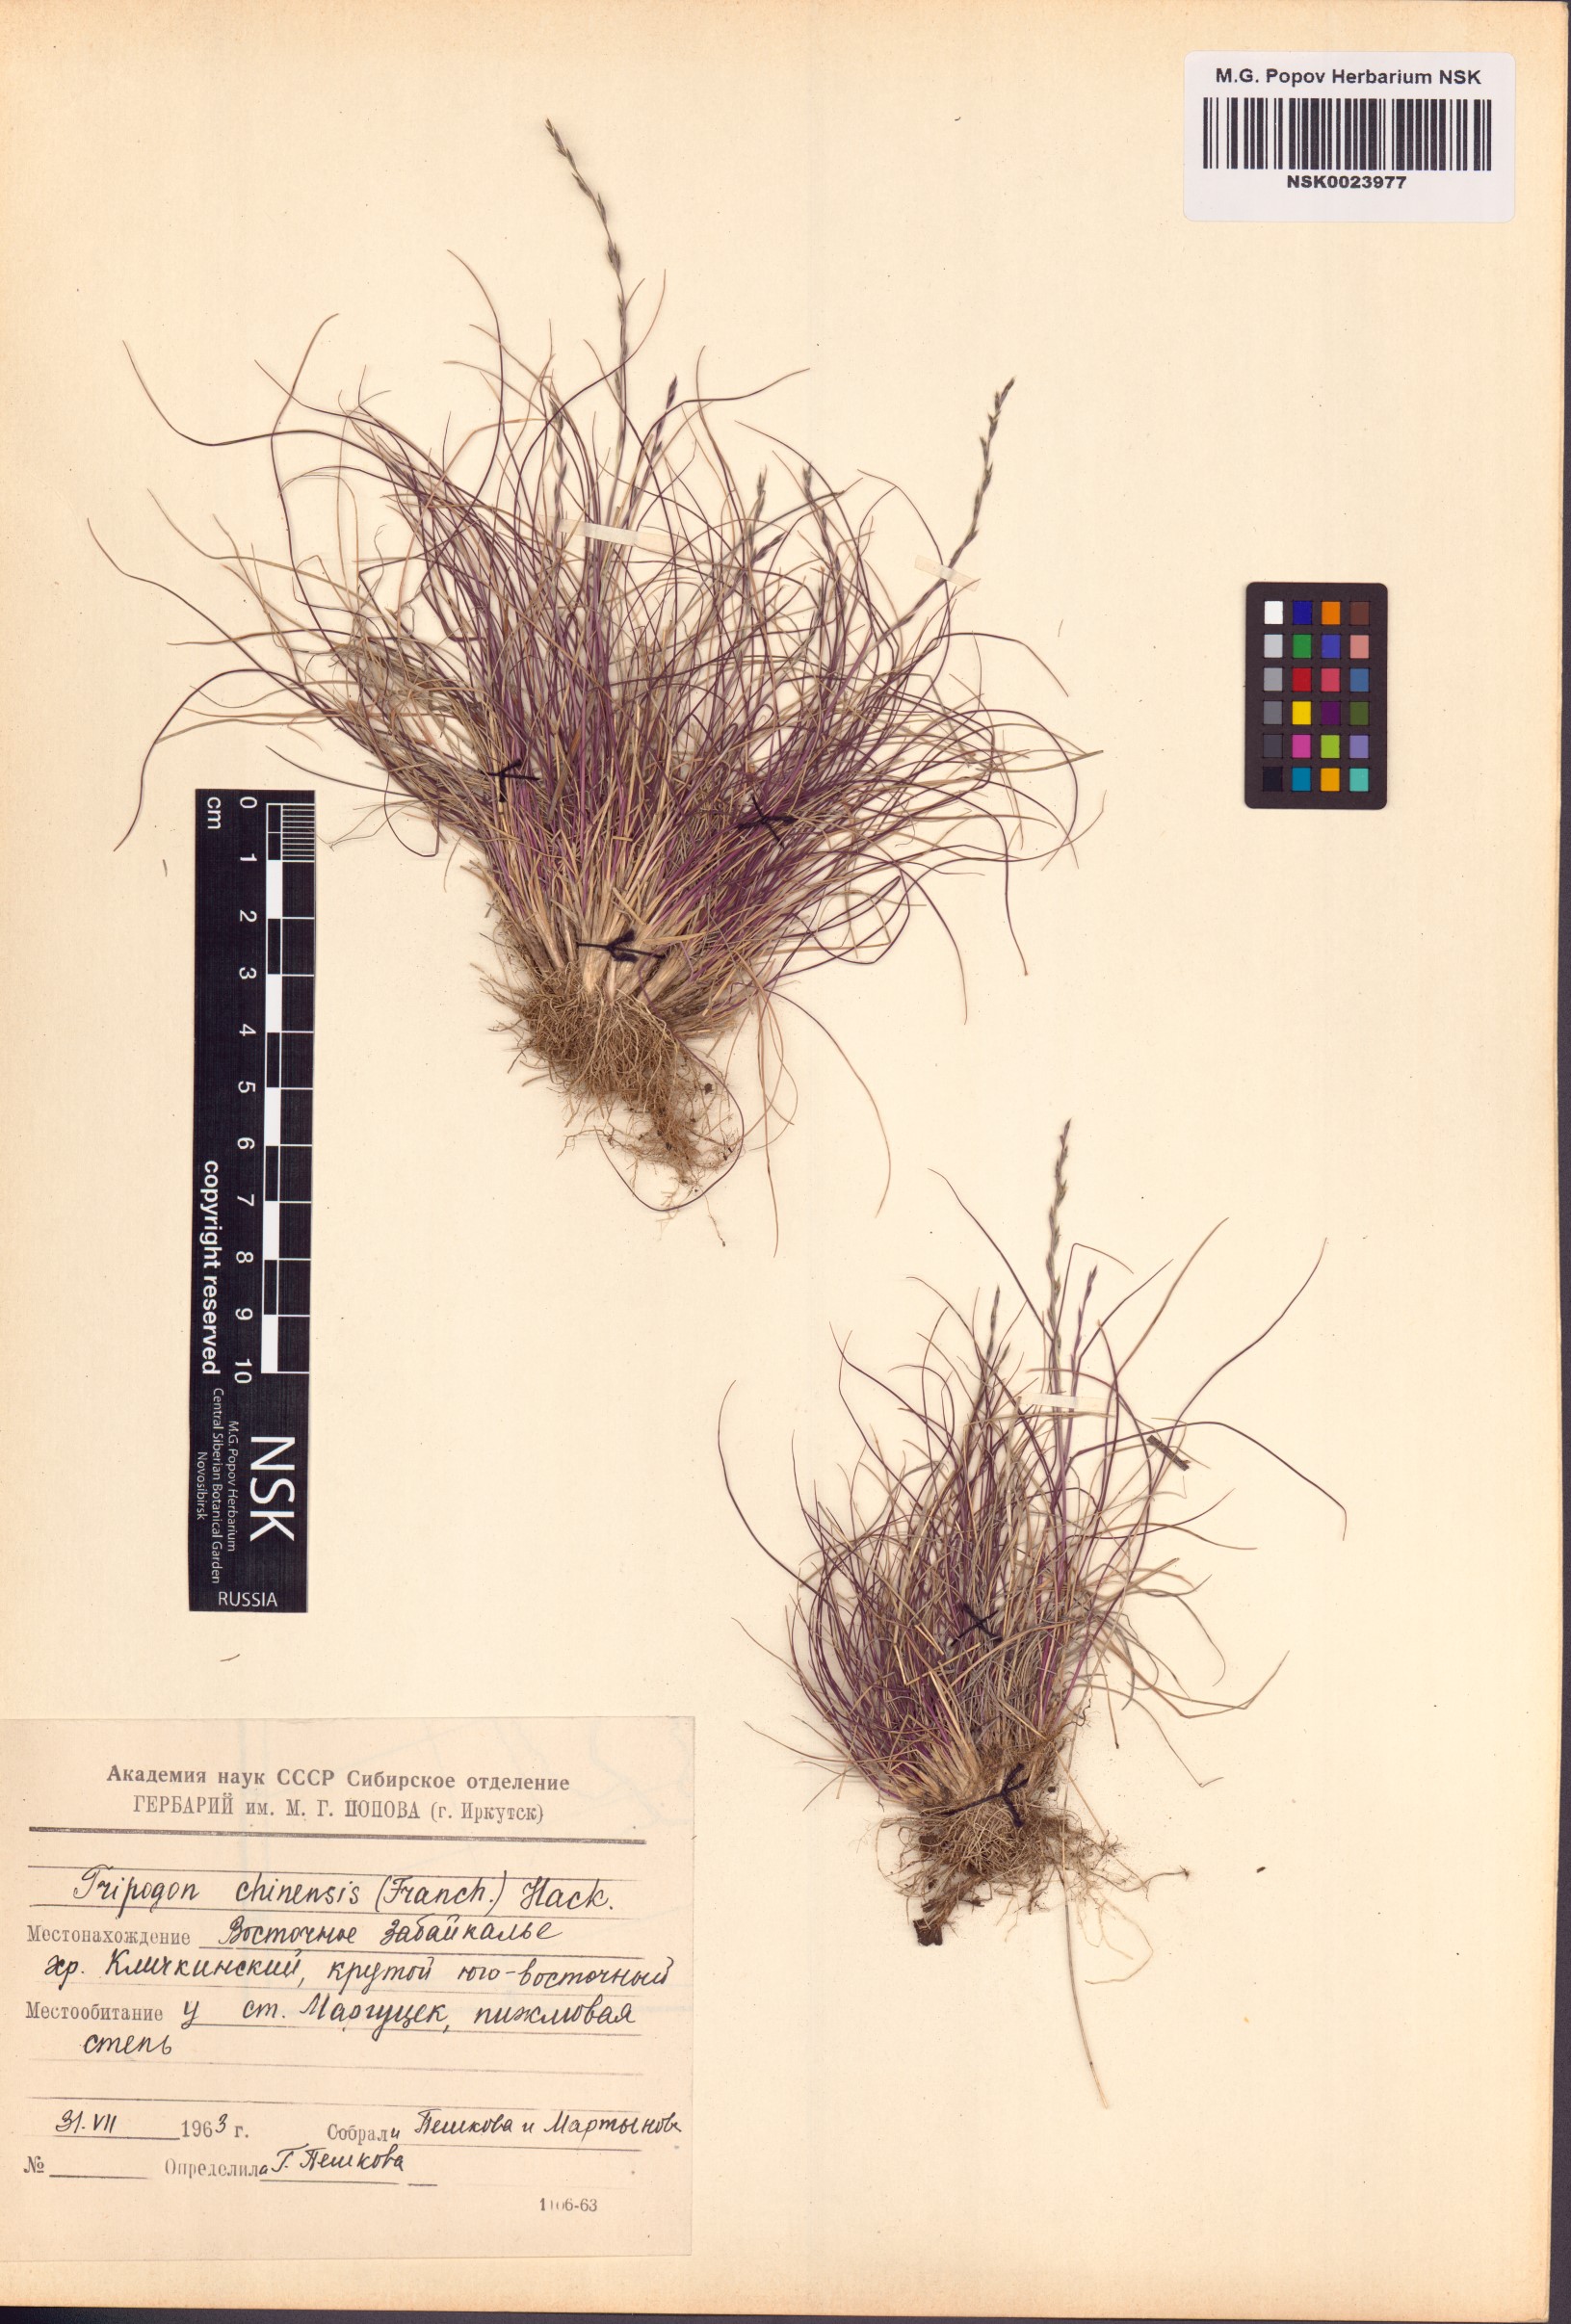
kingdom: Plantae
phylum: Tracheophyta
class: Liliopsida
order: Poales
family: Poaceae
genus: Tripogon
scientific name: Tripogon chinensis
